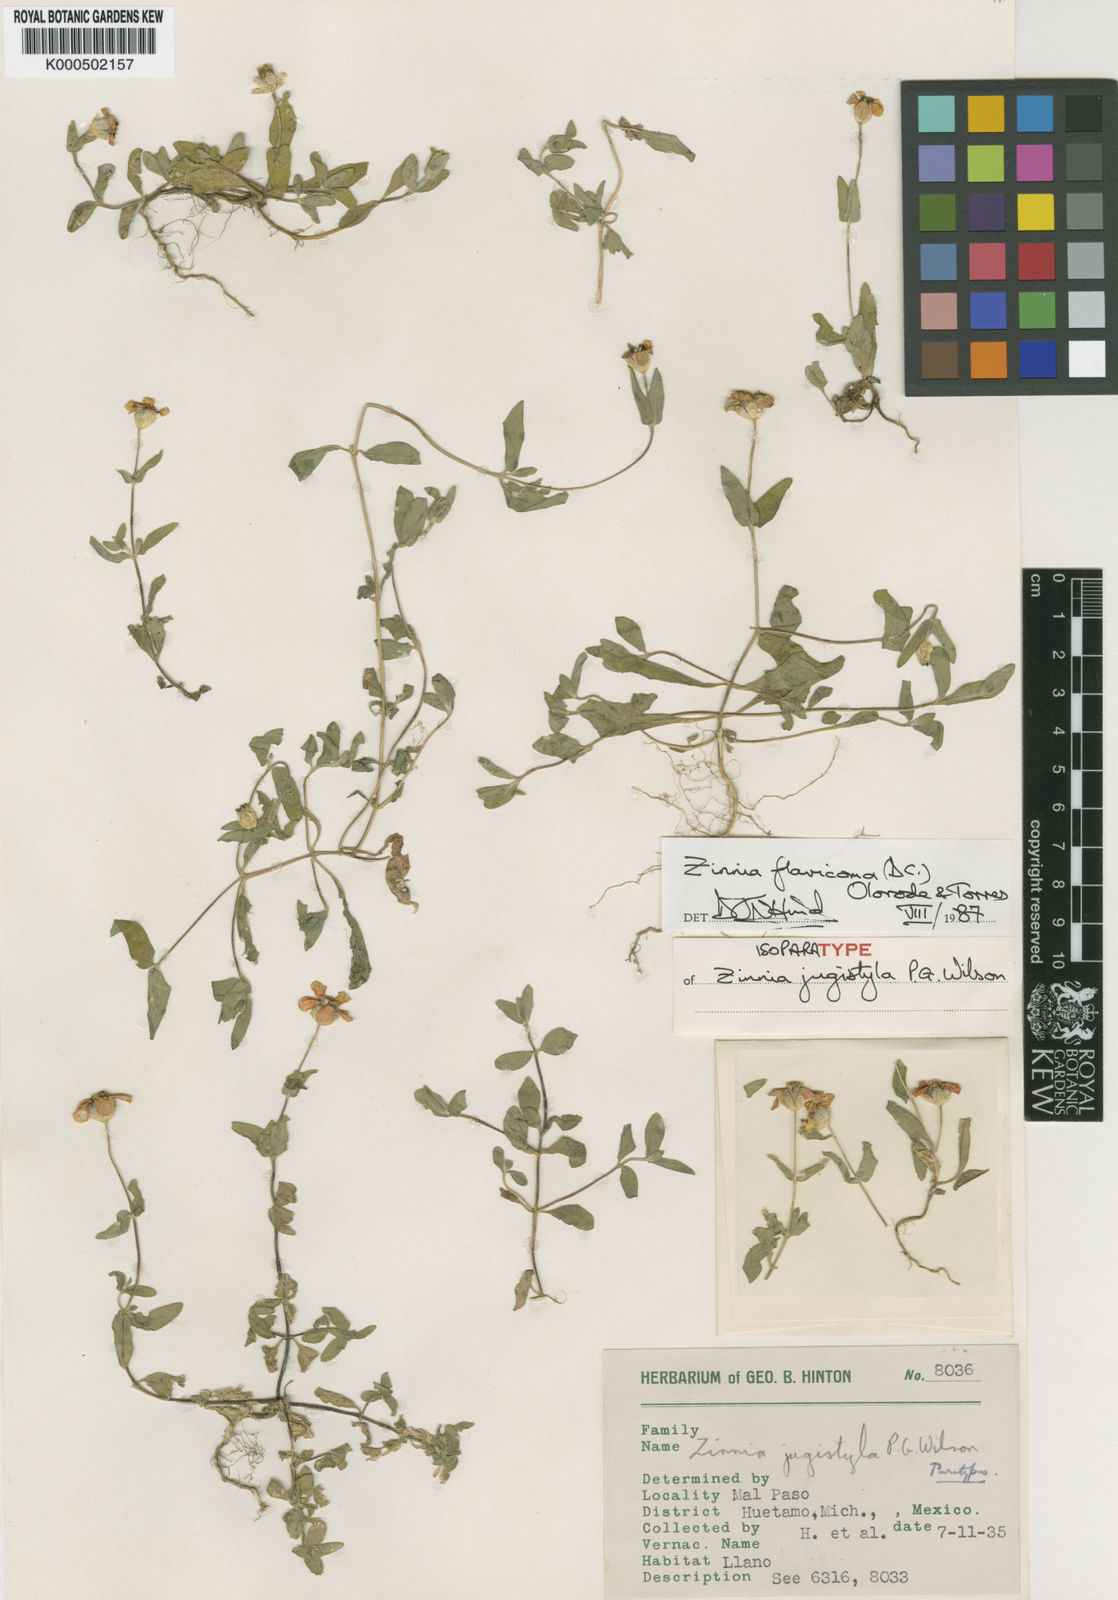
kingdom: Plantae
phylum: Tracheophyta
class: Magnoliopsida
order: Asterales
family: Asteraceae
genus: Zinnia
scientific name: Zinnia flavicoma
